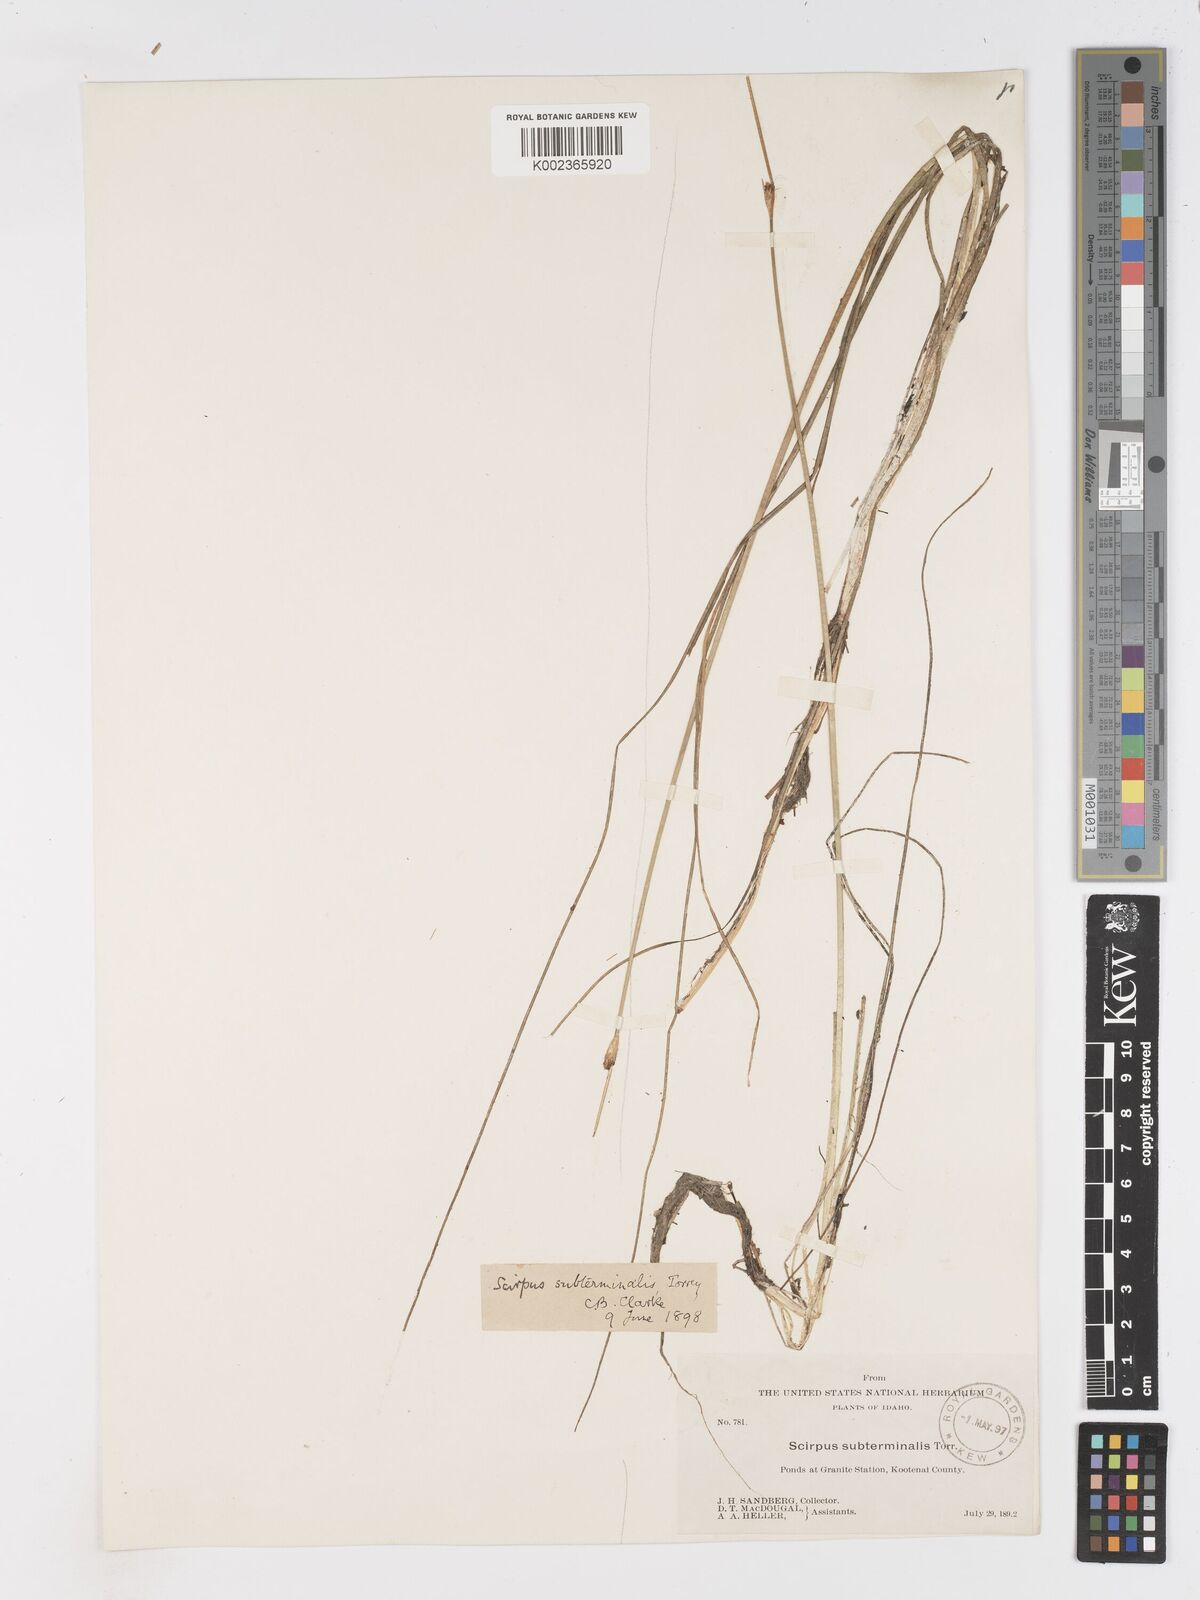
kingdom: Plantae
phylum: Tracheophyta
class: Liliopsida
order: Poales
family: Cyperaceae
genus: Schoenoplectus
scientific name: Schoenoplectus subterminalis
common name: Swaying bulrush
